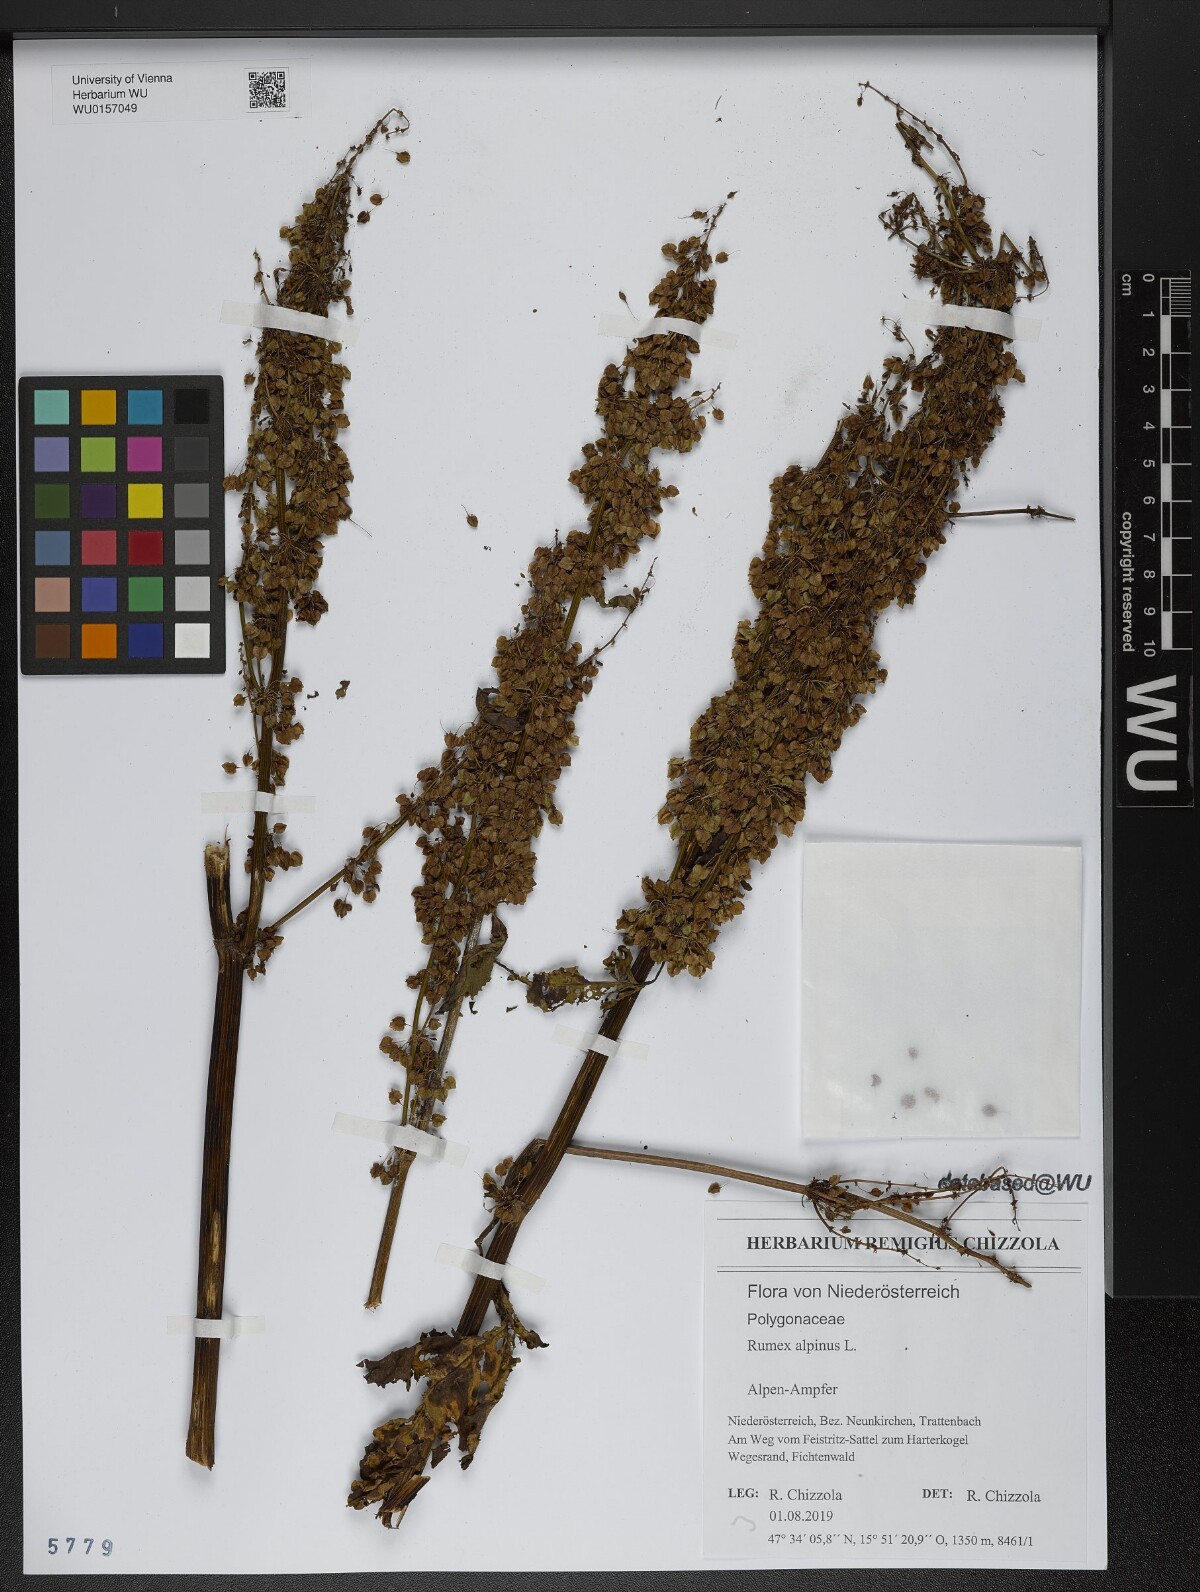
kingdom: Plantae
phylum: Tracheophyta
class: Magnoliopsida
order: Caryophyllales
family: Polygonaceae
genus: Rumex
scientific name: Rumex alpinus
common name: Alpine dock
